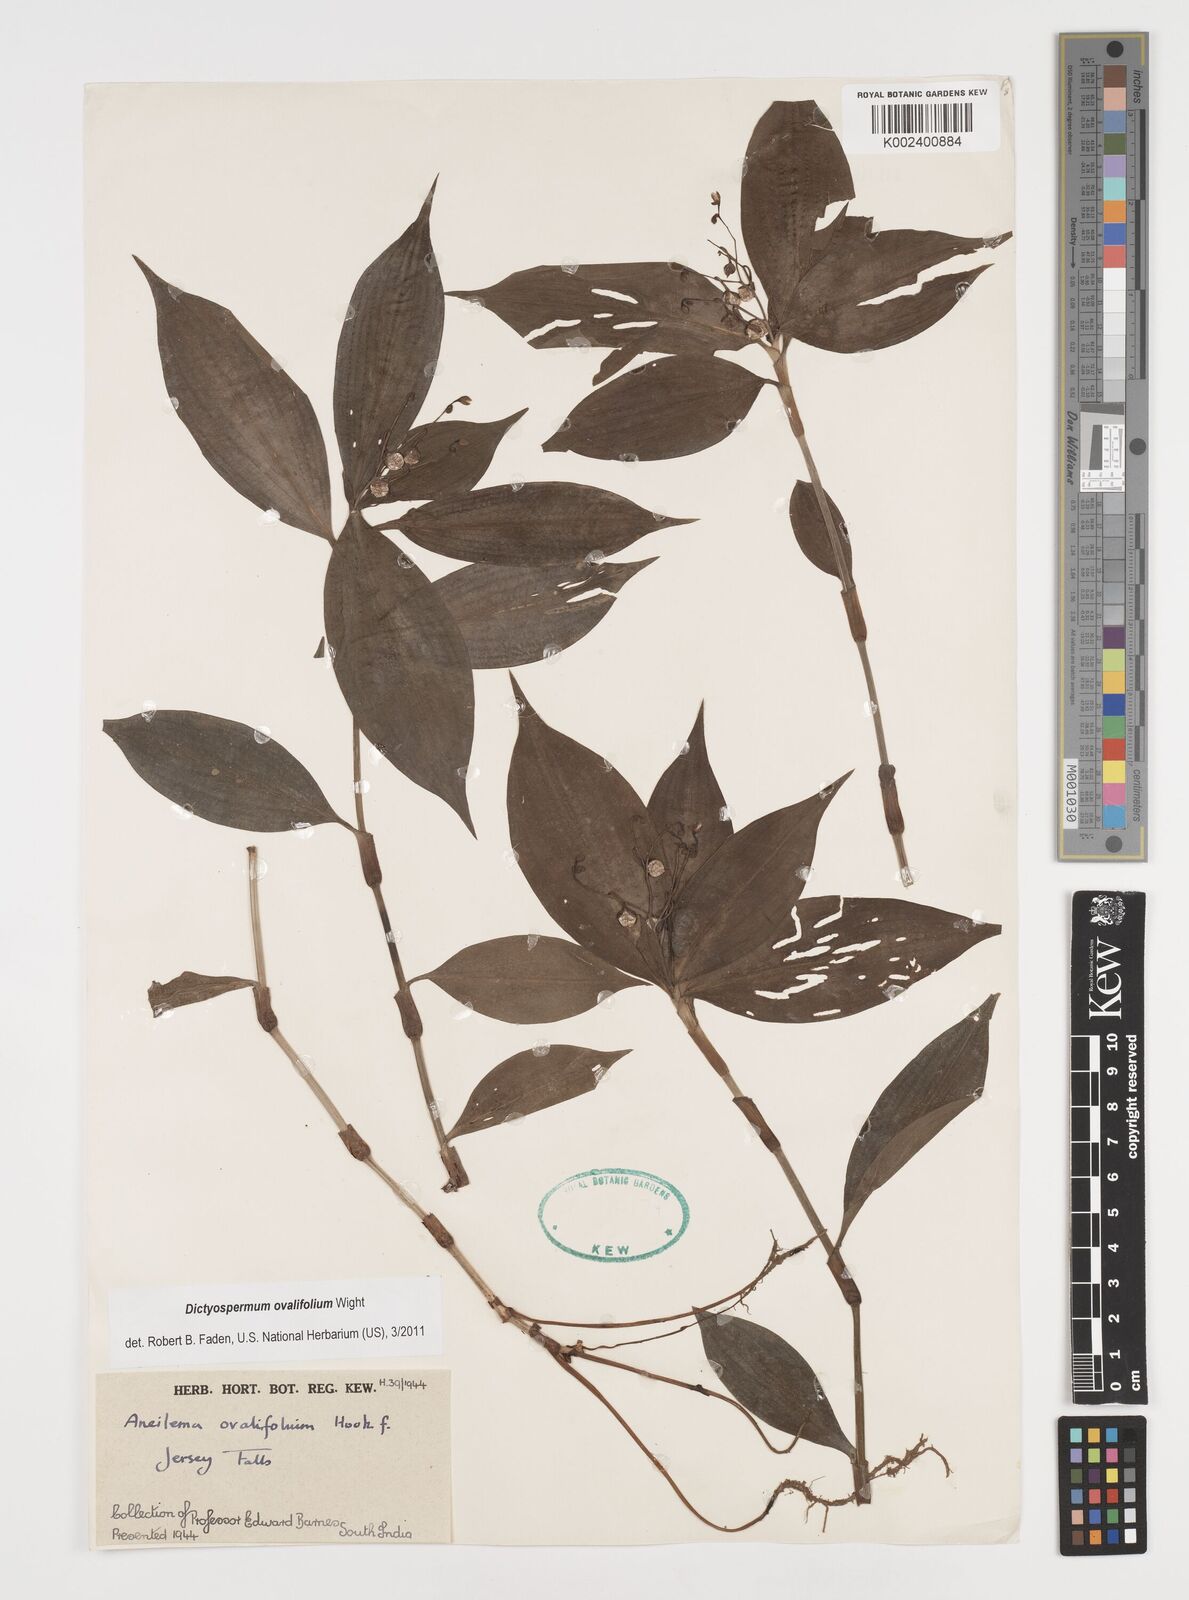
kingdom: Plantae
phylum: Tracheophyta
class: Liliopsida
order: Commelinales
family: Commelinaceae
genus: Dictyospermum
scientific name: Dictyospermum ovalifolium
